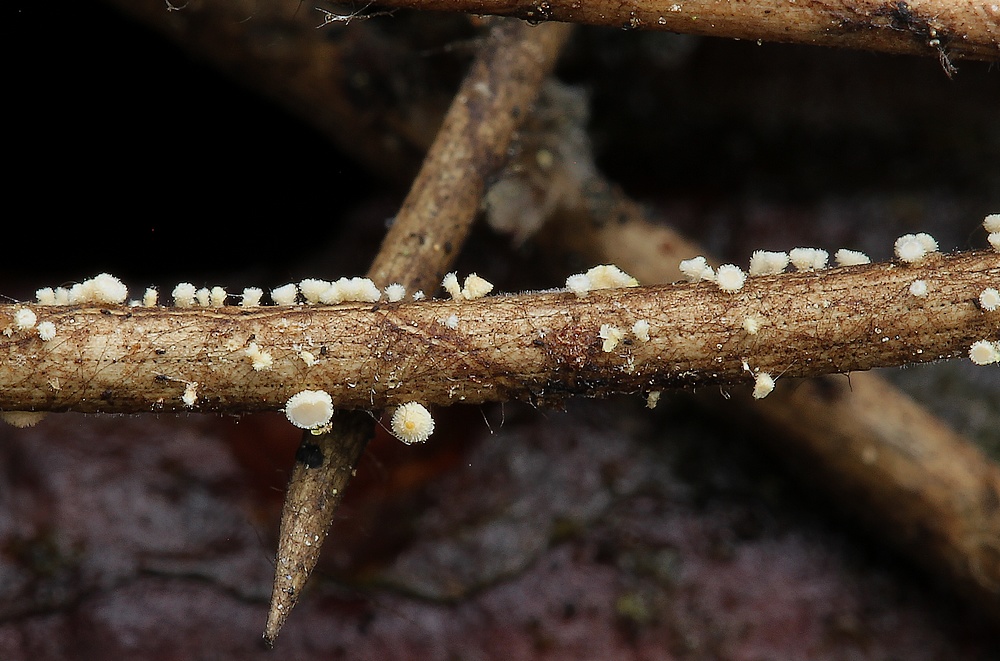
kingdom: Fungi
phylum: Ascomycota
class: Leotiomycetes
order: Helotiales
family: Lachnaceae
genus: Lachnellula
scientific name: Lachnellula pulverulenta
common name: fyrrenåls-frynseskive
